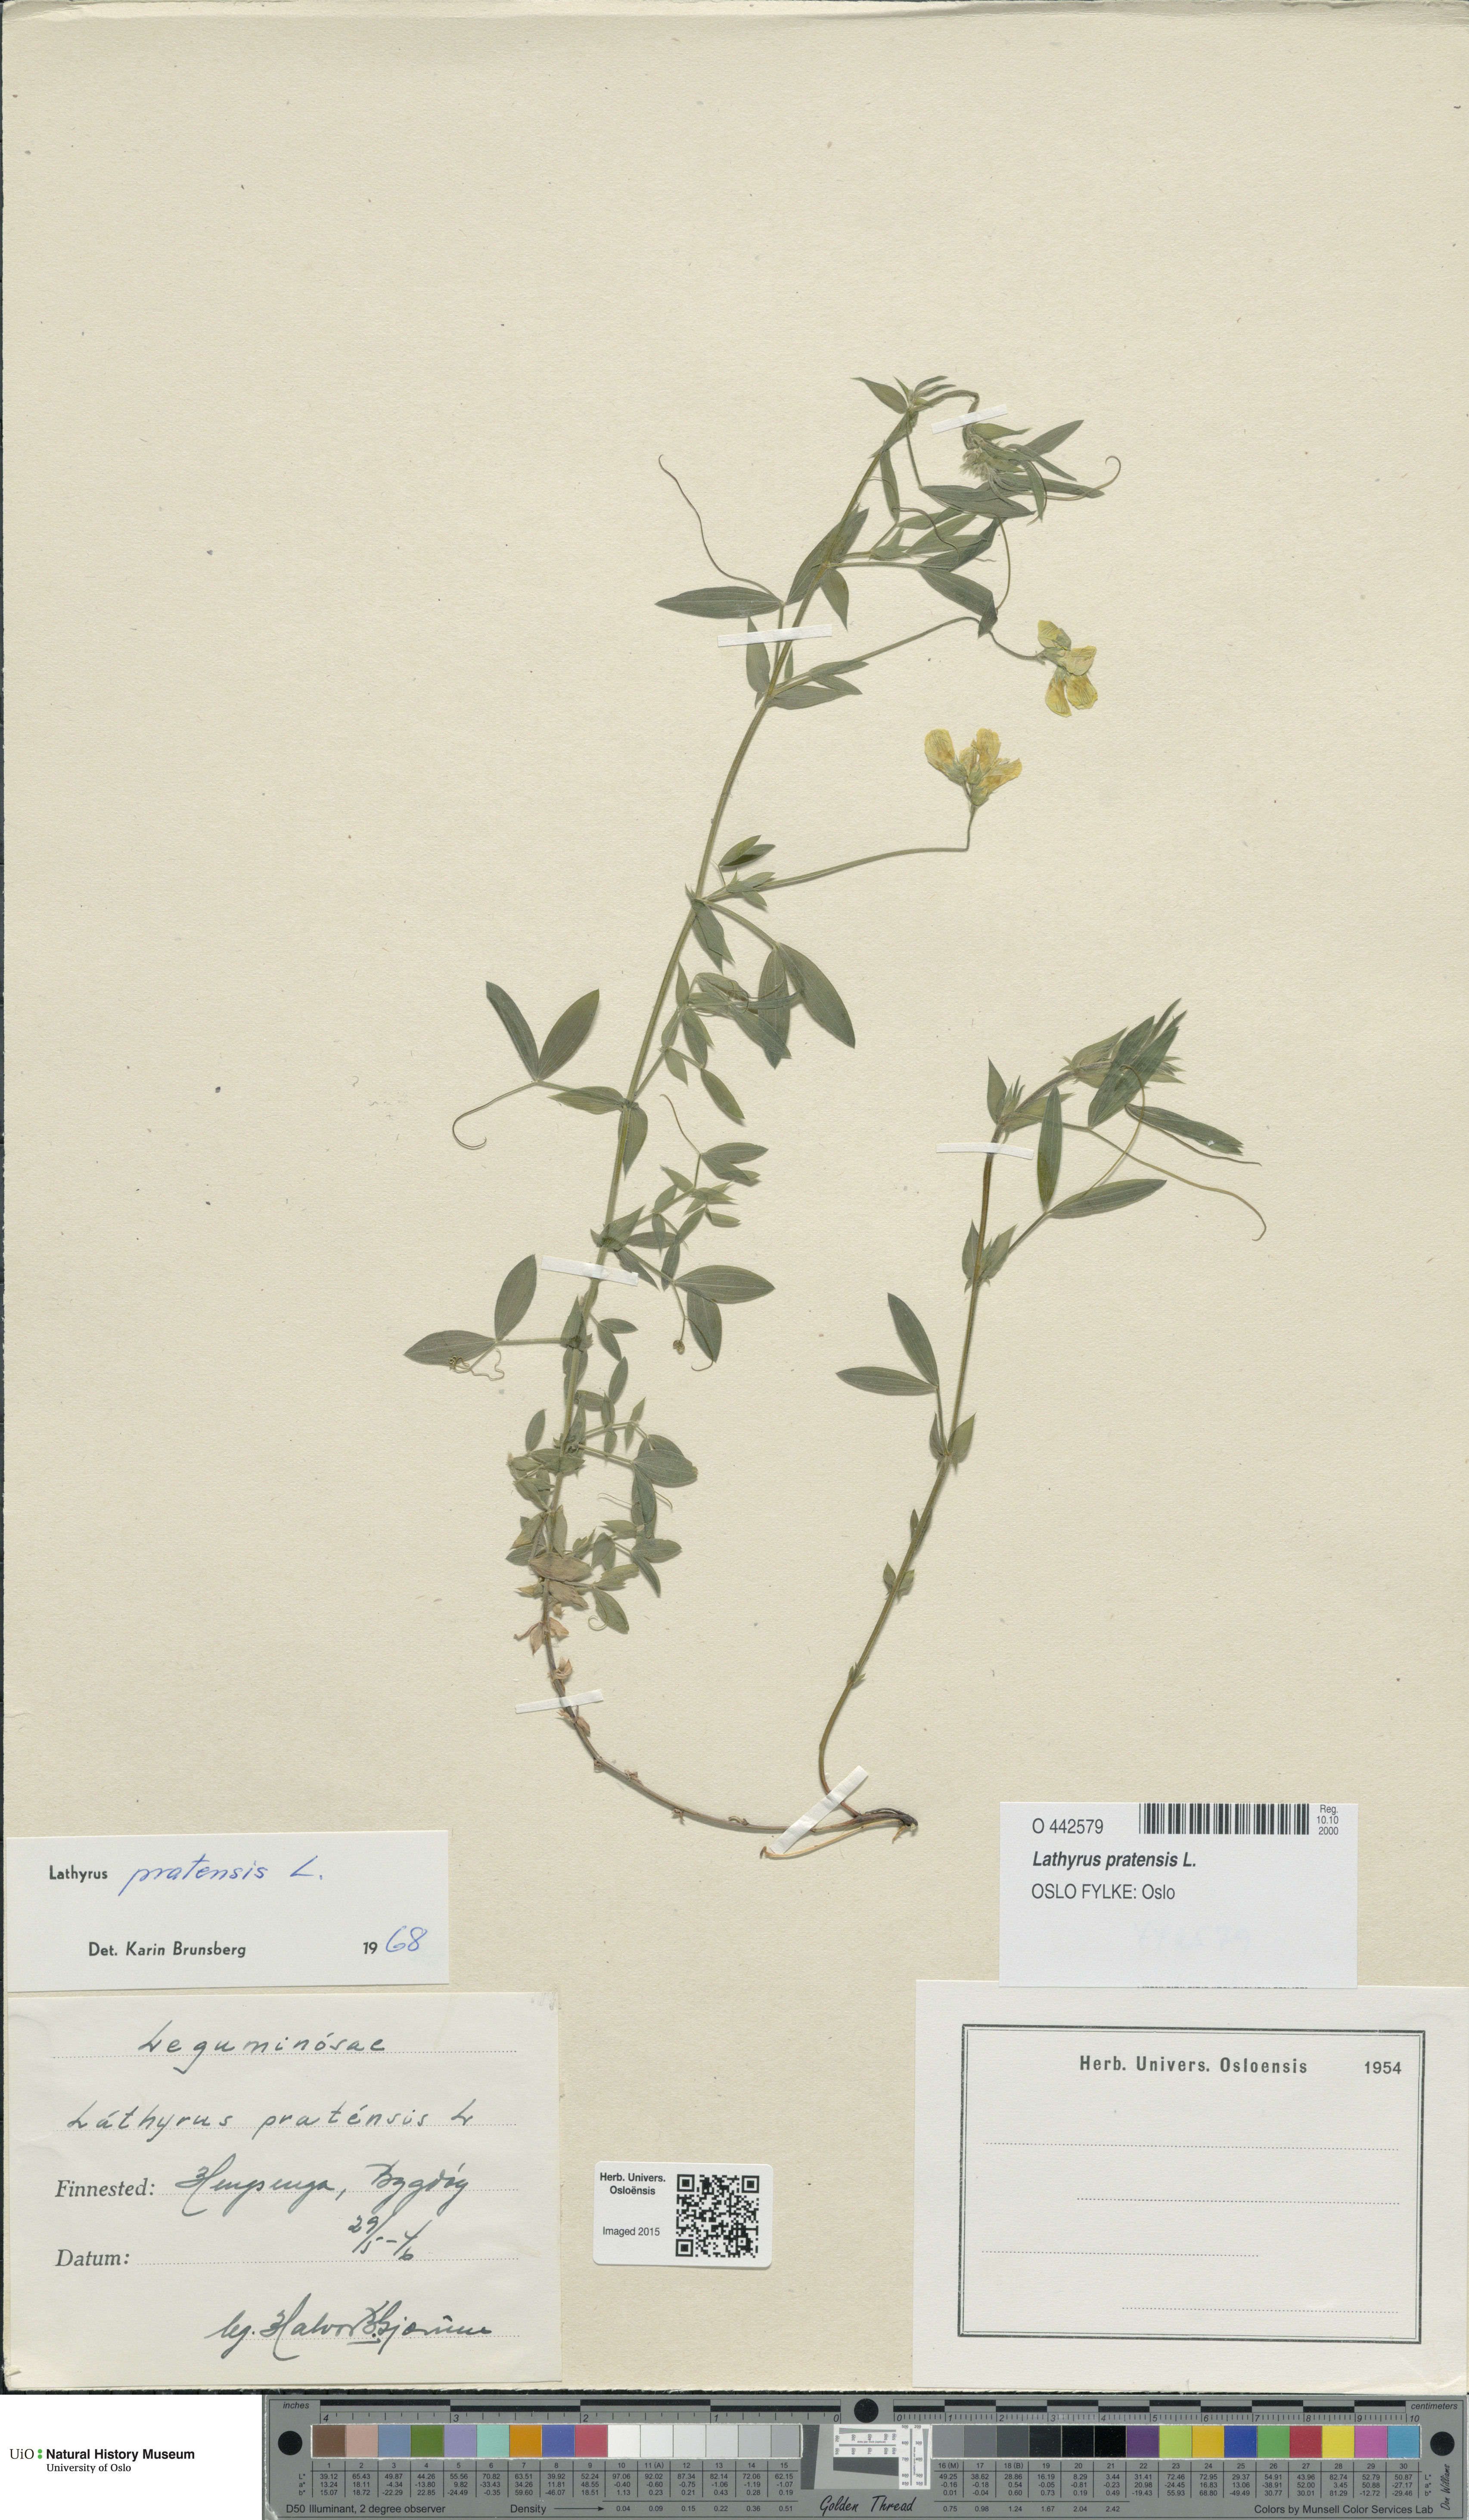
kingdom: Plantae
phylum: Tracheophyta
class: Magnoliopsida
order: Fabales
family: Fabaceae
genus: Lathyrus
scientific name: Lathyrus pratensis
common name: Meadow vetchling
